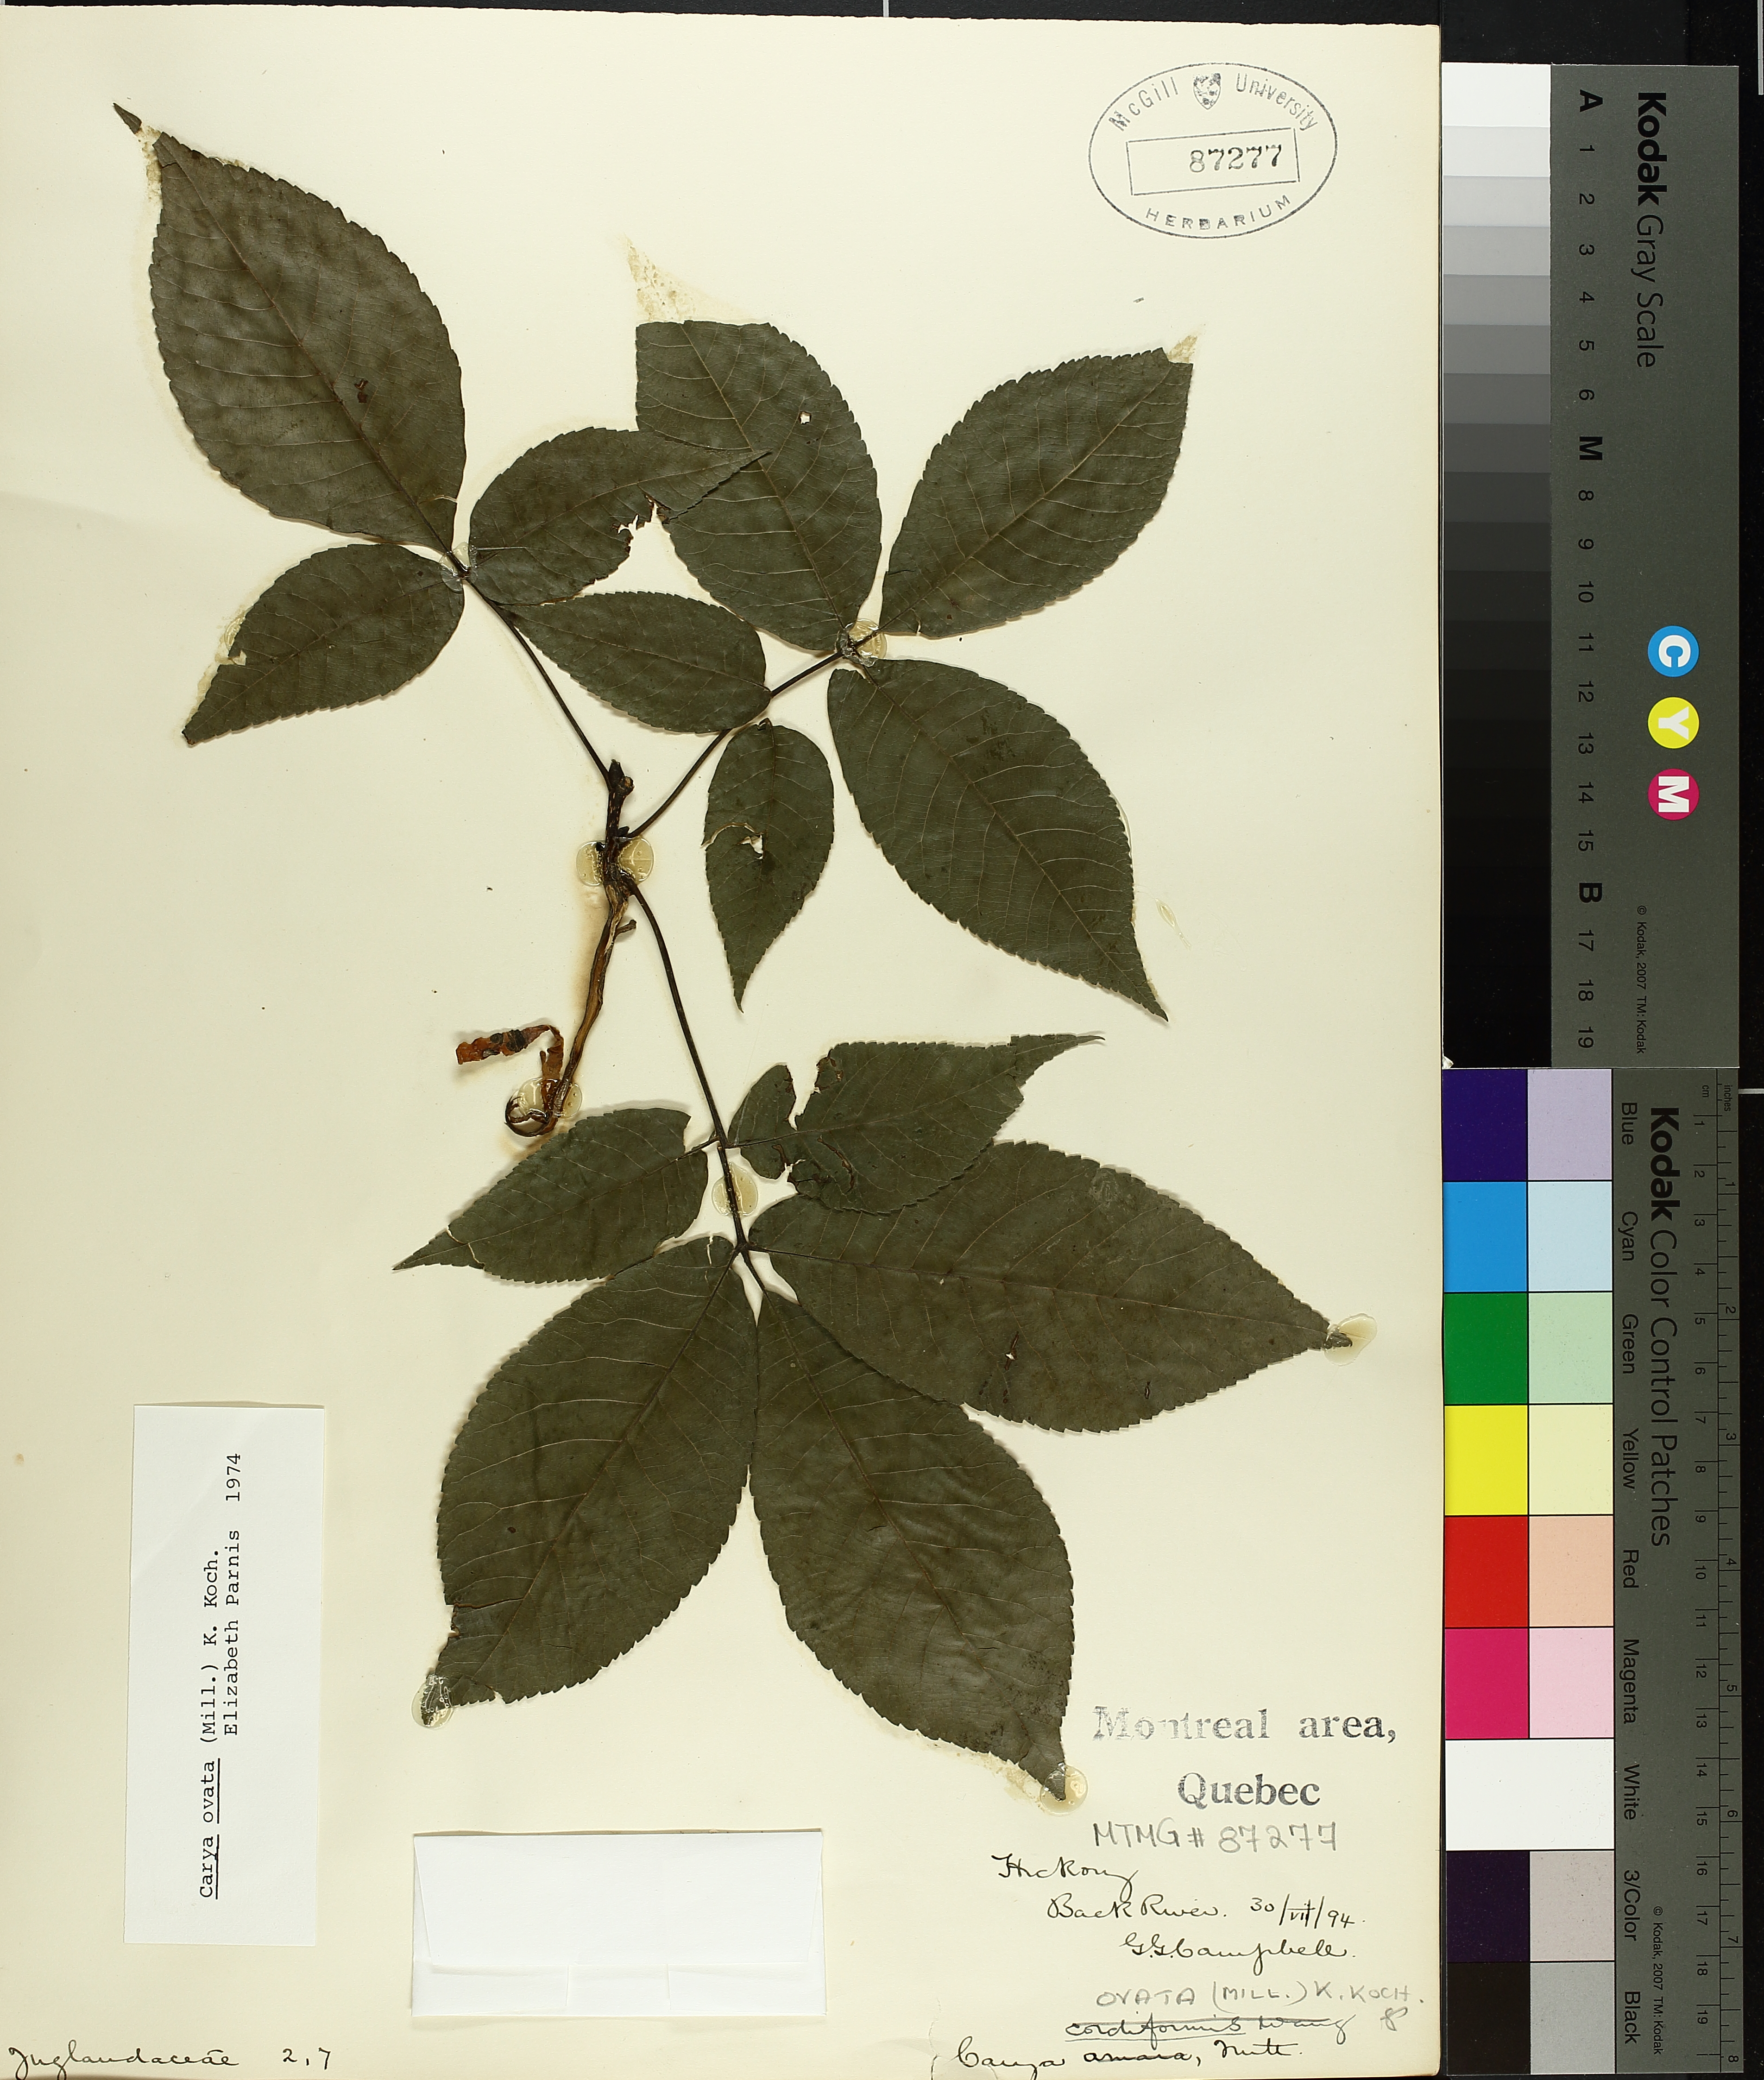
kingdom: Plantae
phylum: Tracheophyta
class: Magnoliopsida
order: Fagales
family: Juglandaceae
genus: Carya
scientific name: Carya ovata
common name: Shagbark hickory
